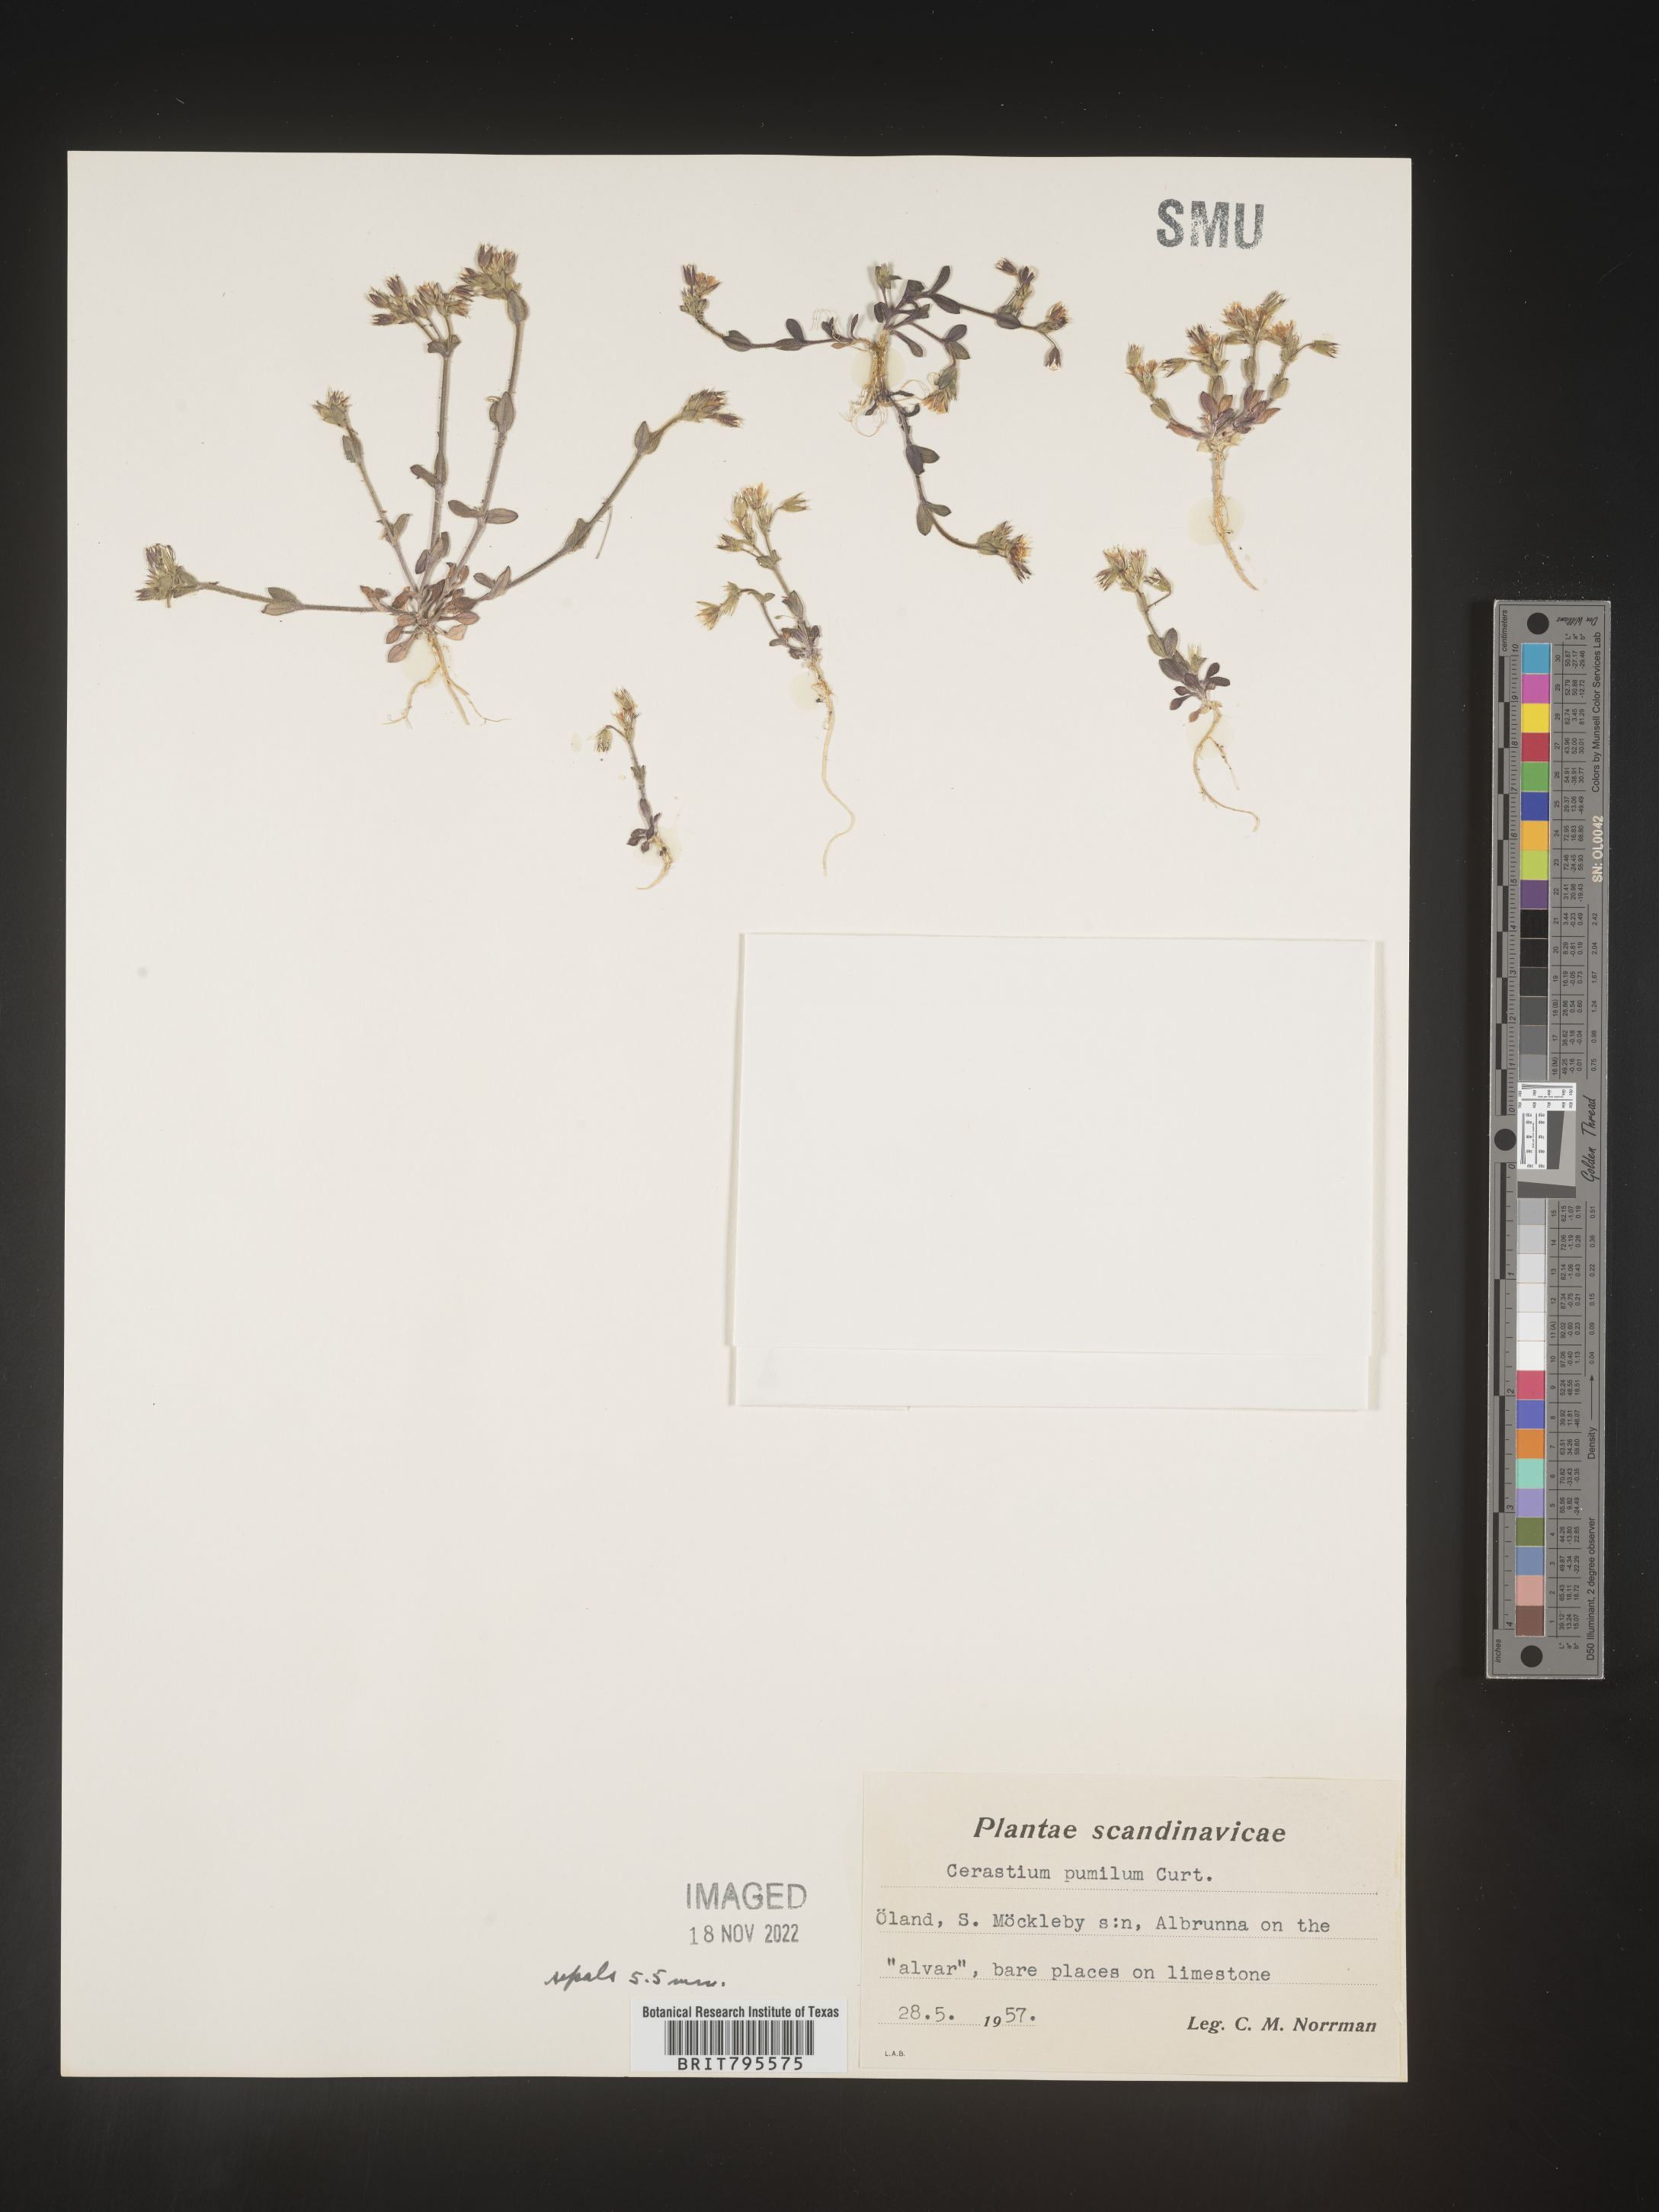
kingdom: Plantae
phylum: Tracheophyta
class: Magnoliopsida
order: Caryophyllales
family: Caryophyllaceae
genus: Cerastium
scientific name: Cerastium
